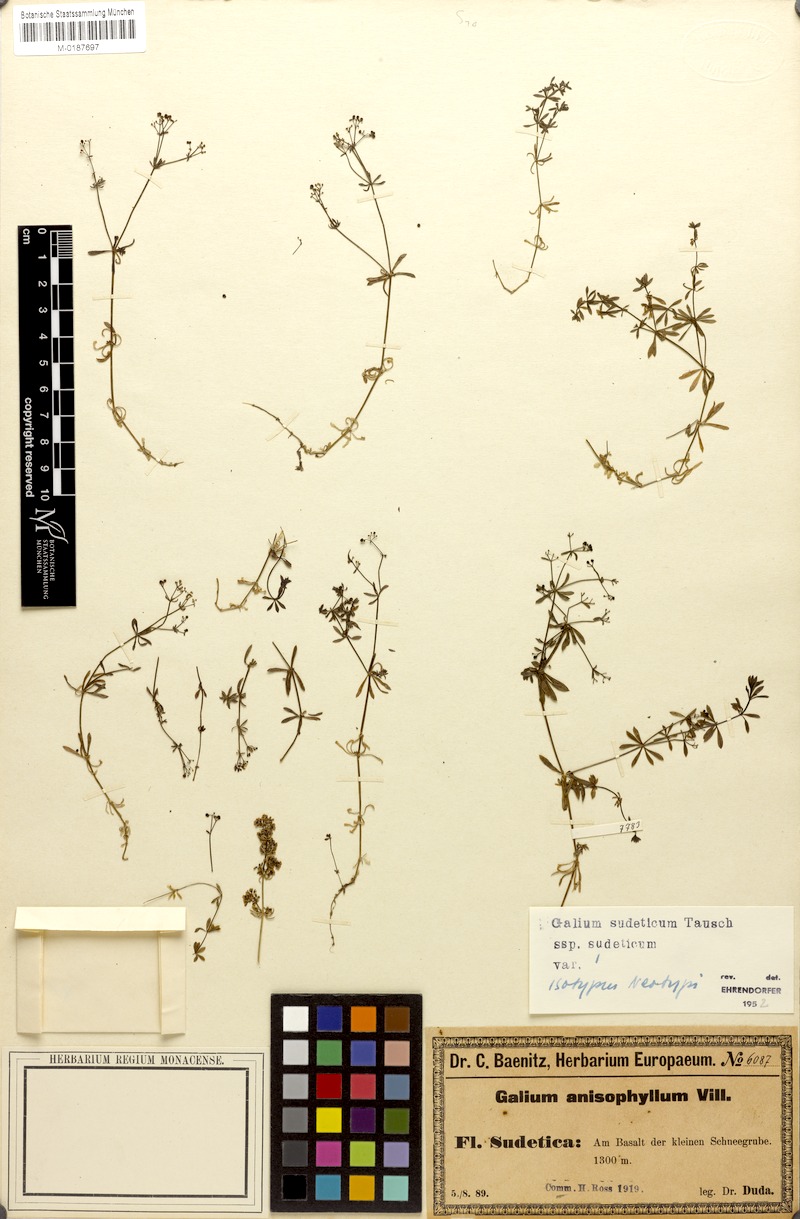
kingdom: Plantae
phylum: Tracheophyta
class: Magnoliopsida
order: Gentianales
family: Rubiaceae
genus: Galium
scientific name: Galium sudeticum
